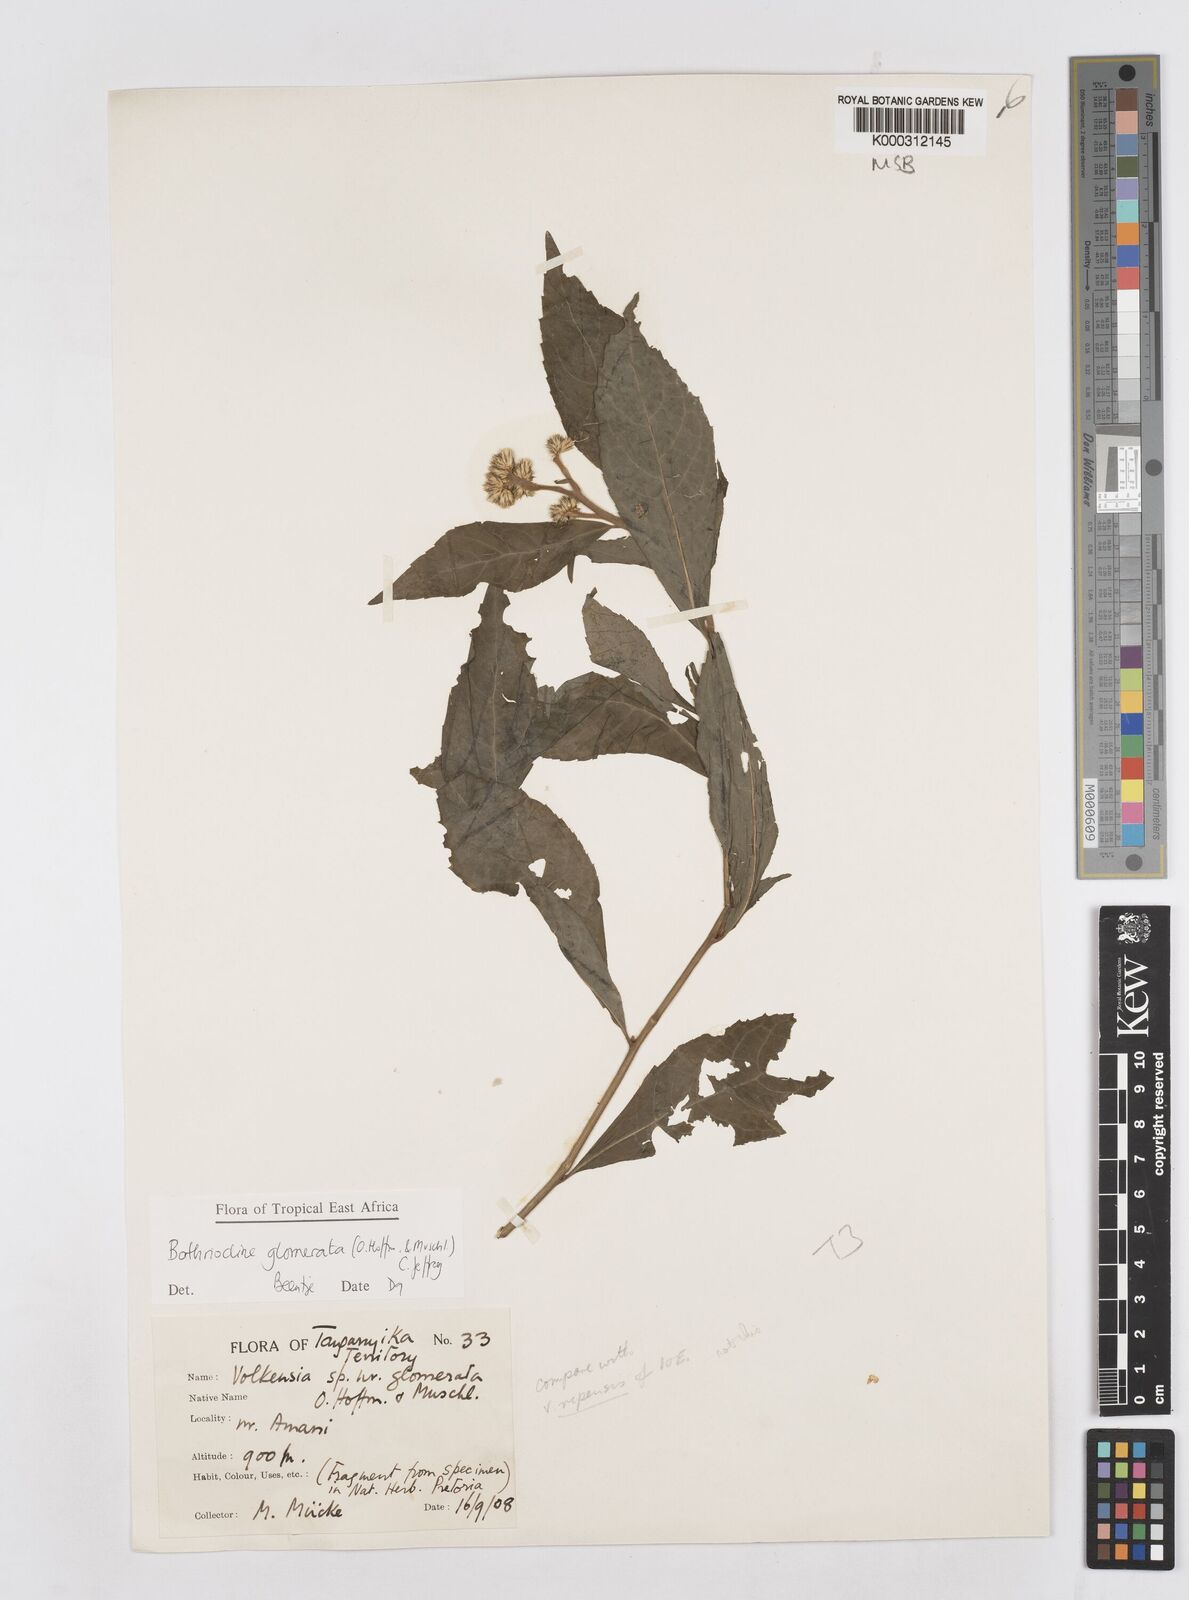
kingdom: Plantae
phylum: Tracheophyta
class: Magnoliopsida
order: Asterales
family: Asteraceae
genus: Bothriocline
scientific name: Bothriocline glomerata
